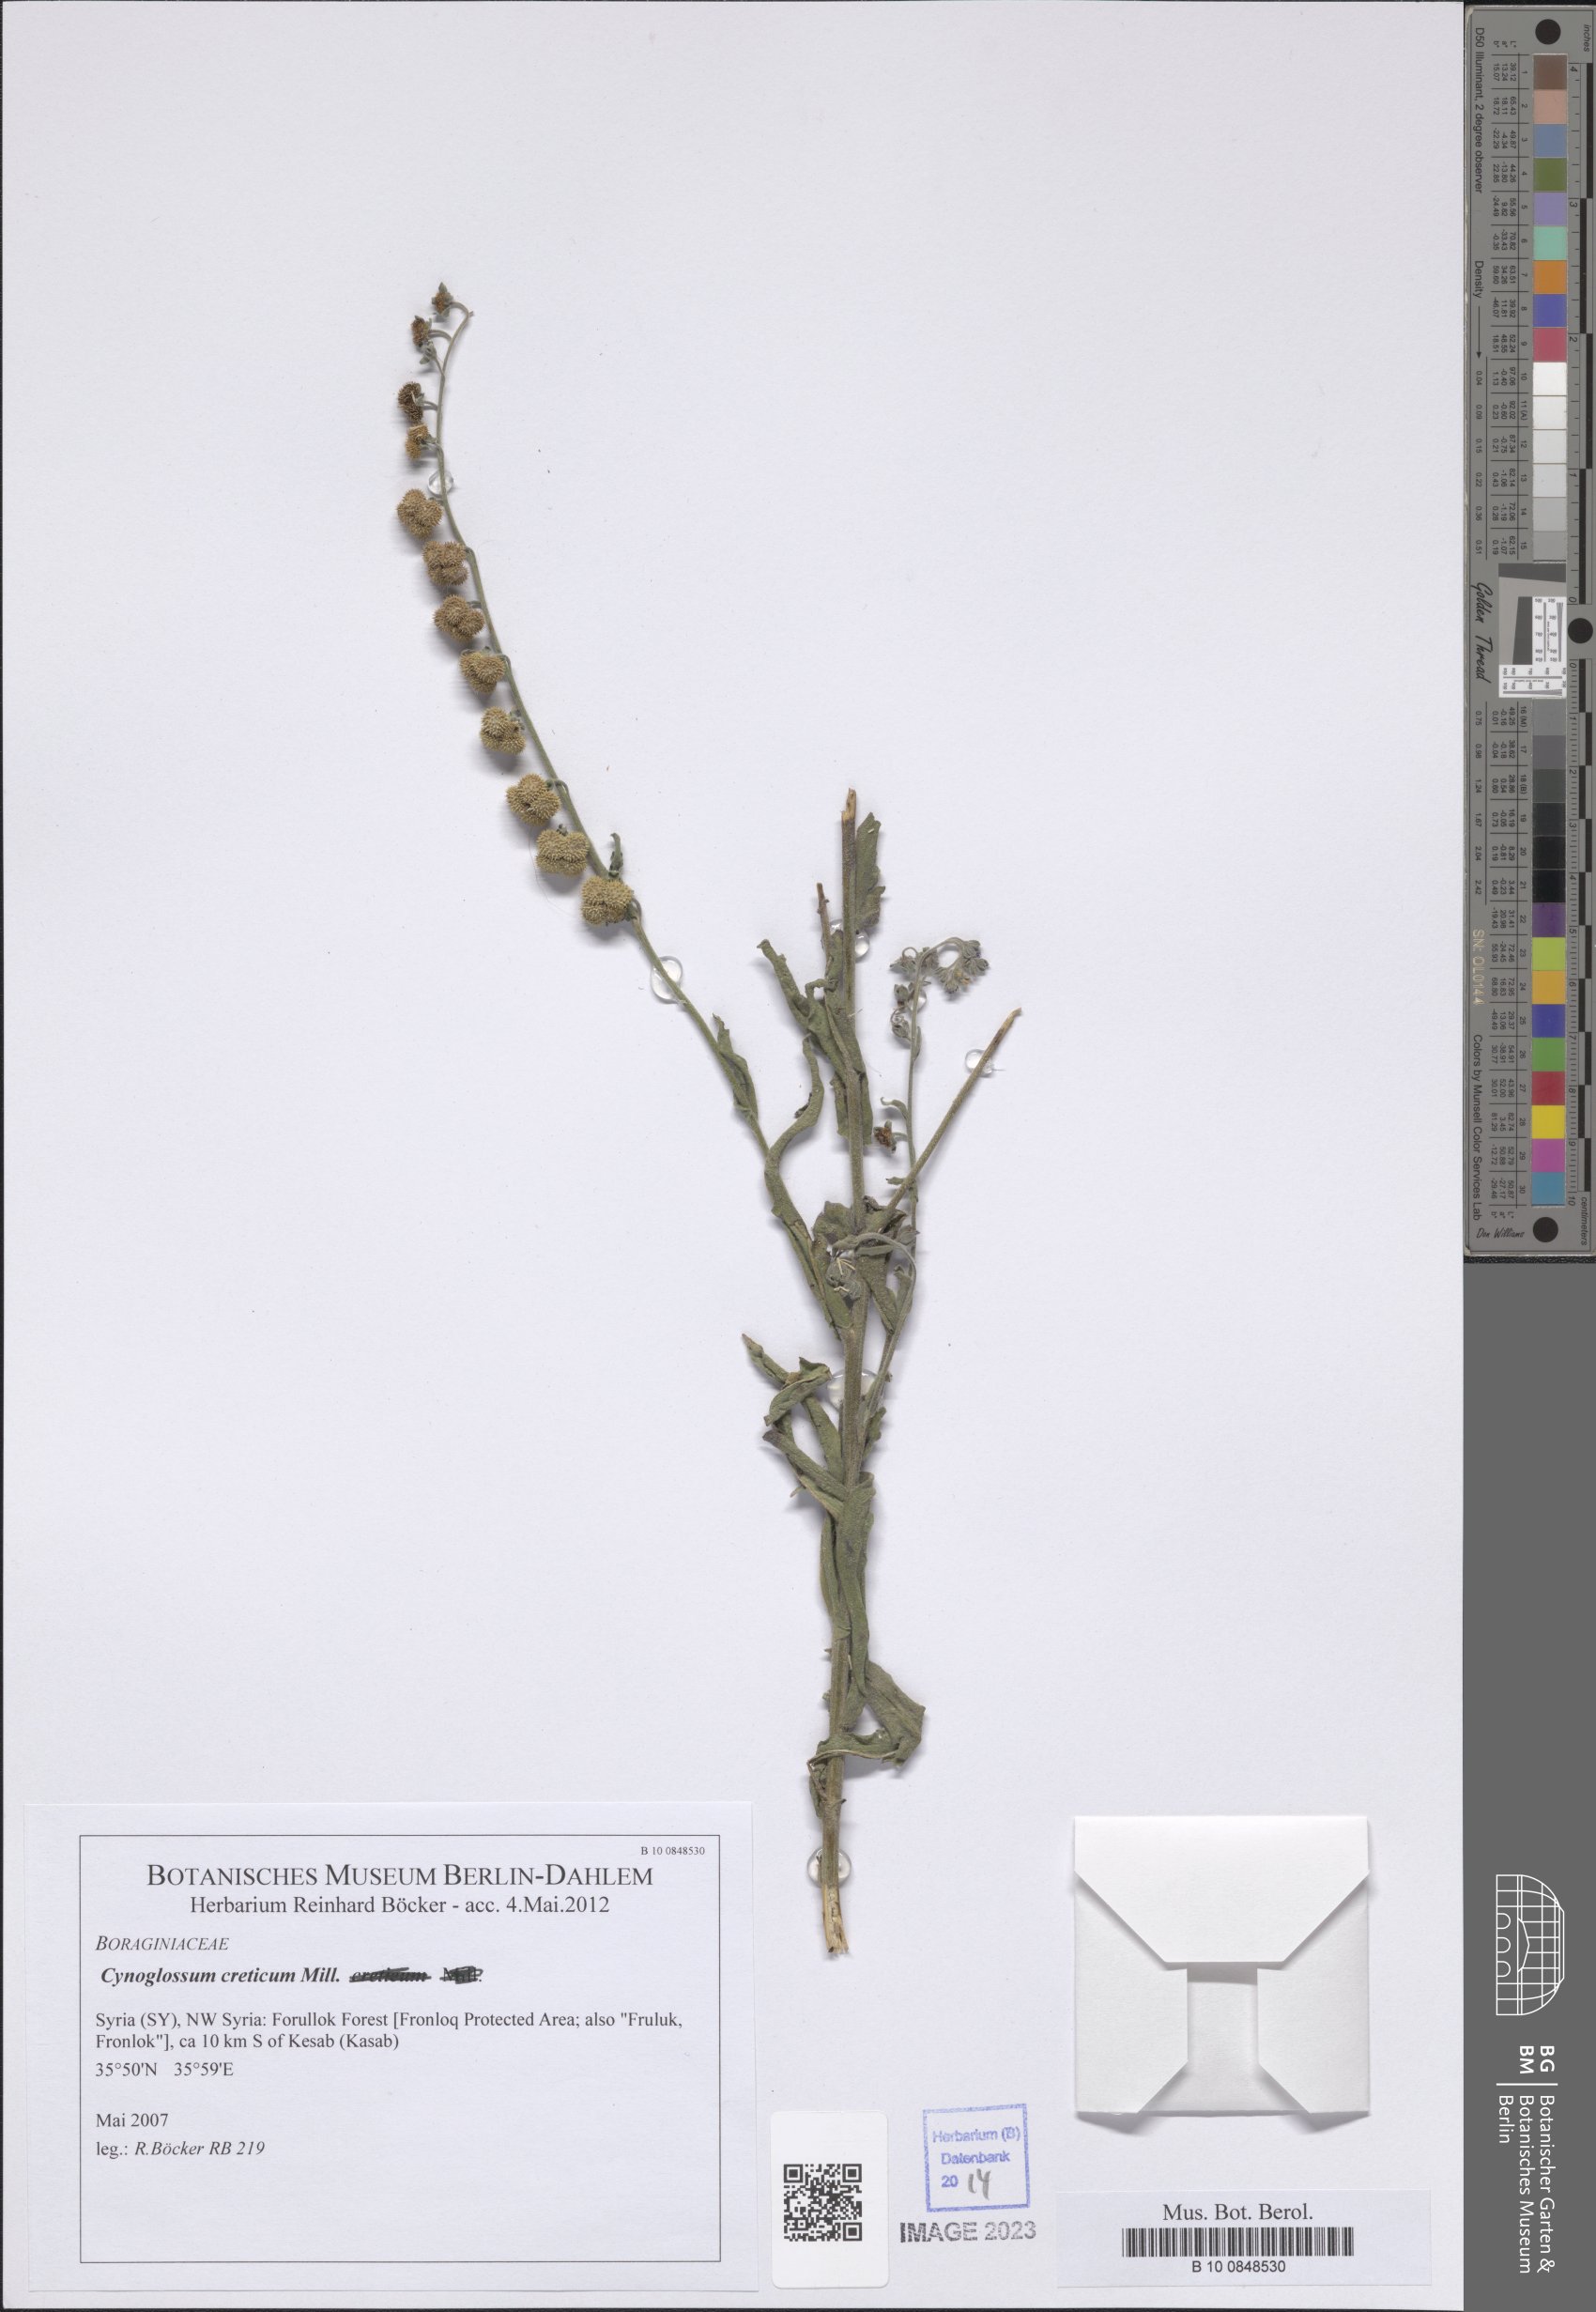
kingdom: Plantae
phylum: Tracheophyta
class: Magnoliopsida
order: Boraginales
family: Boraginaceae
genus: Cynoglossum
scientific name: Cynoglossum creticum
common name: Blue hound's tongue
